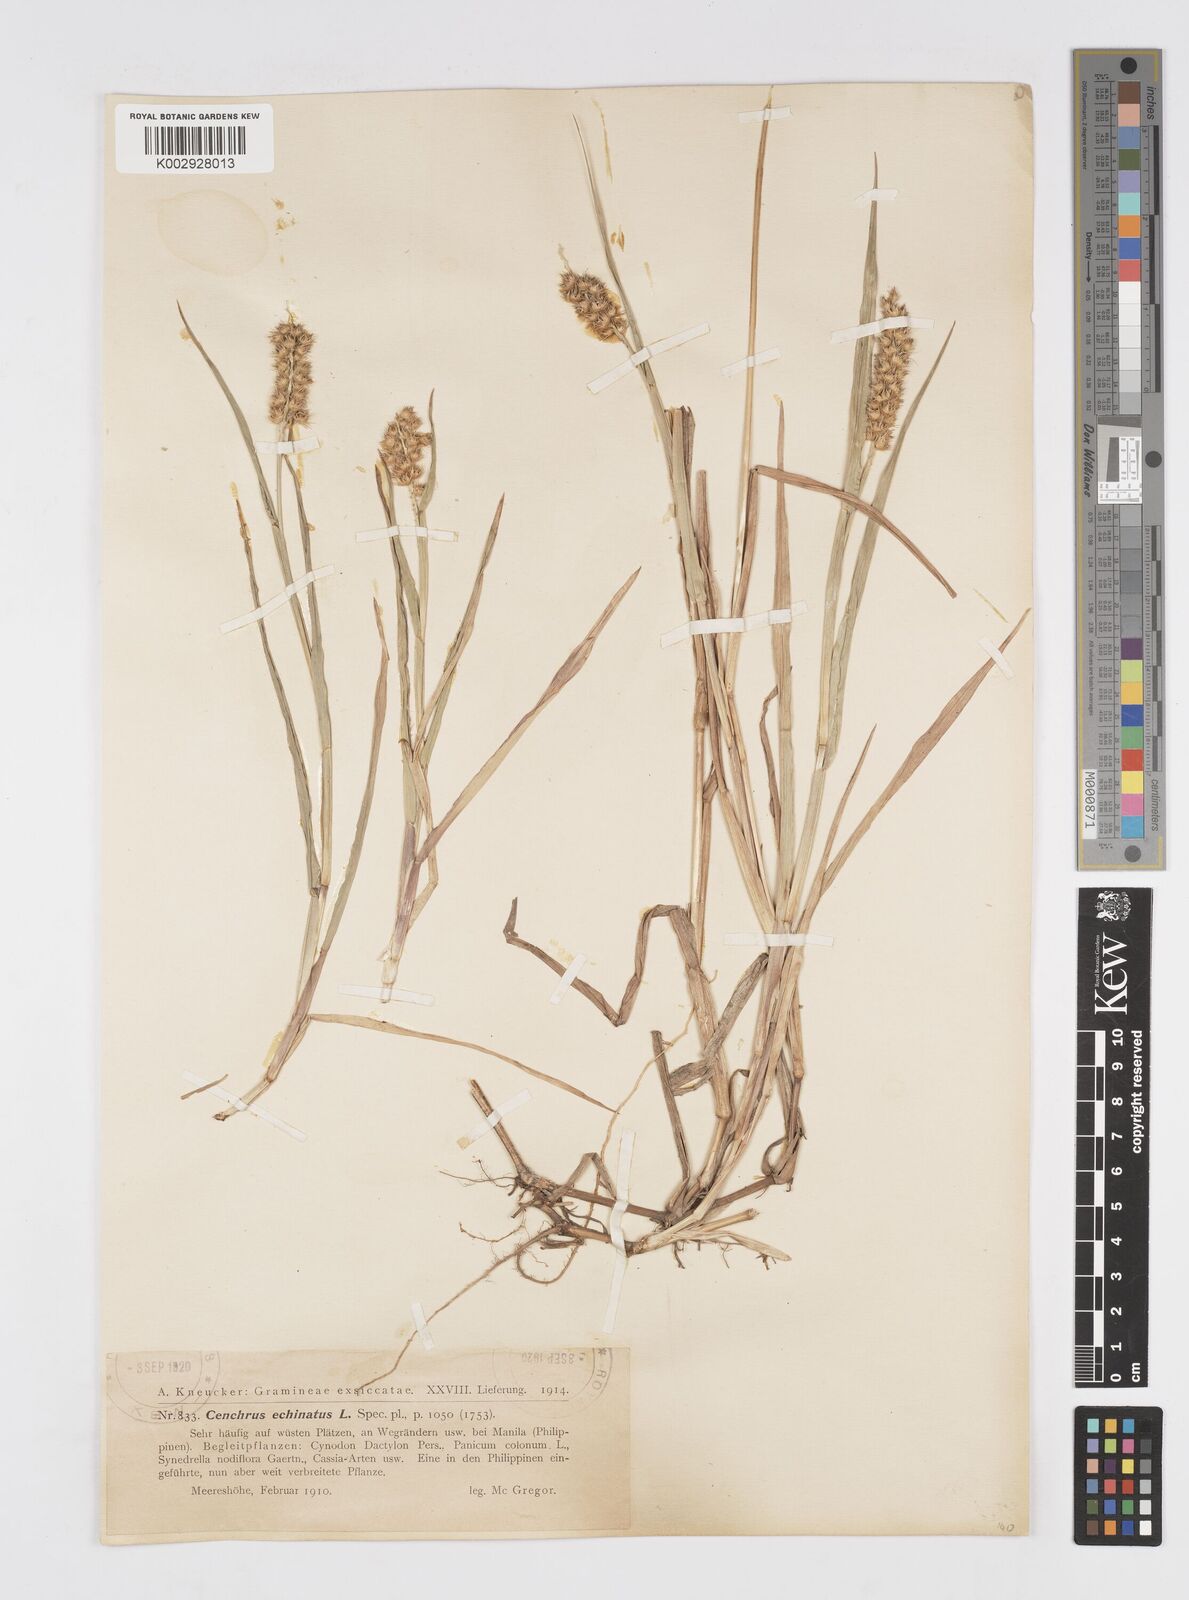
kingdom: Plantae
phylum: Tracheophyta
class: Liliopsida
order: Poales
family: Poaceae
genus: Cenchrus
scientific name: Cenchrus brownii
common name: Slim-bristle sandbur
